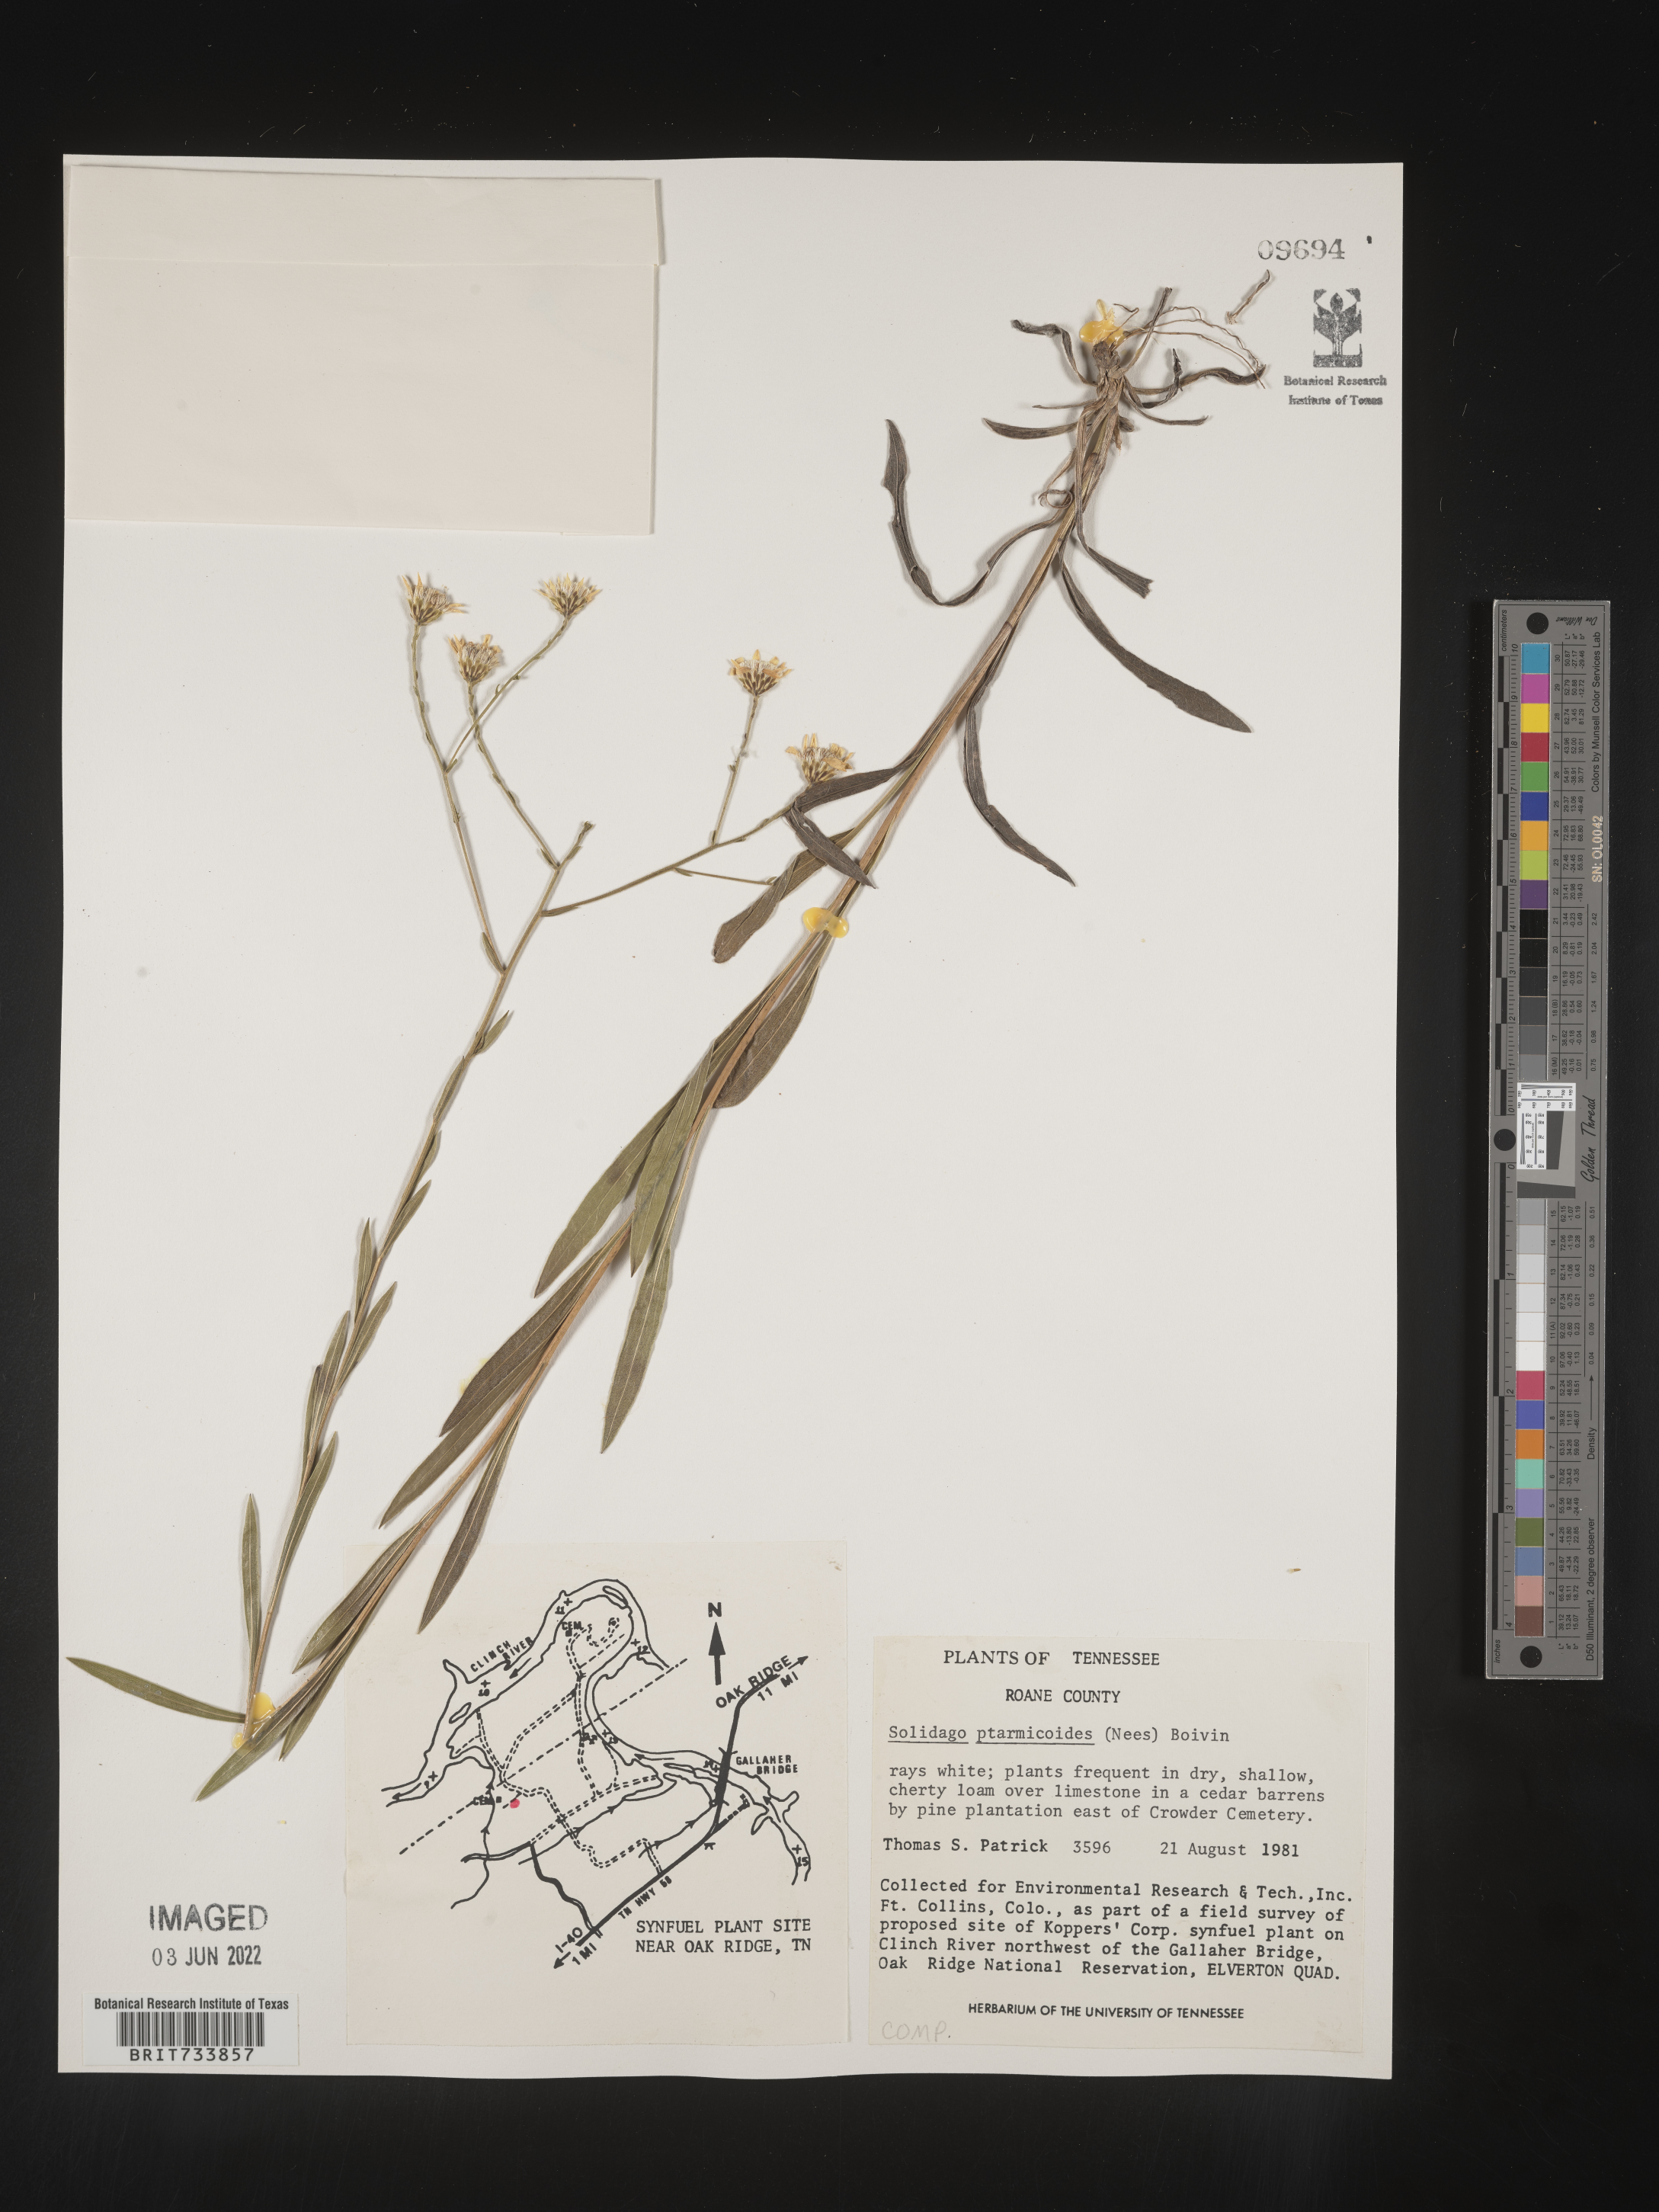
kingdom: Plantae
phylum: Tracheophyta
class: Magnoliopsida
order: Asterales
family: Asteraceae
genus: Solidago
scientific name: Solidago ptarmicoides
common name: White flat-top goldenrod
